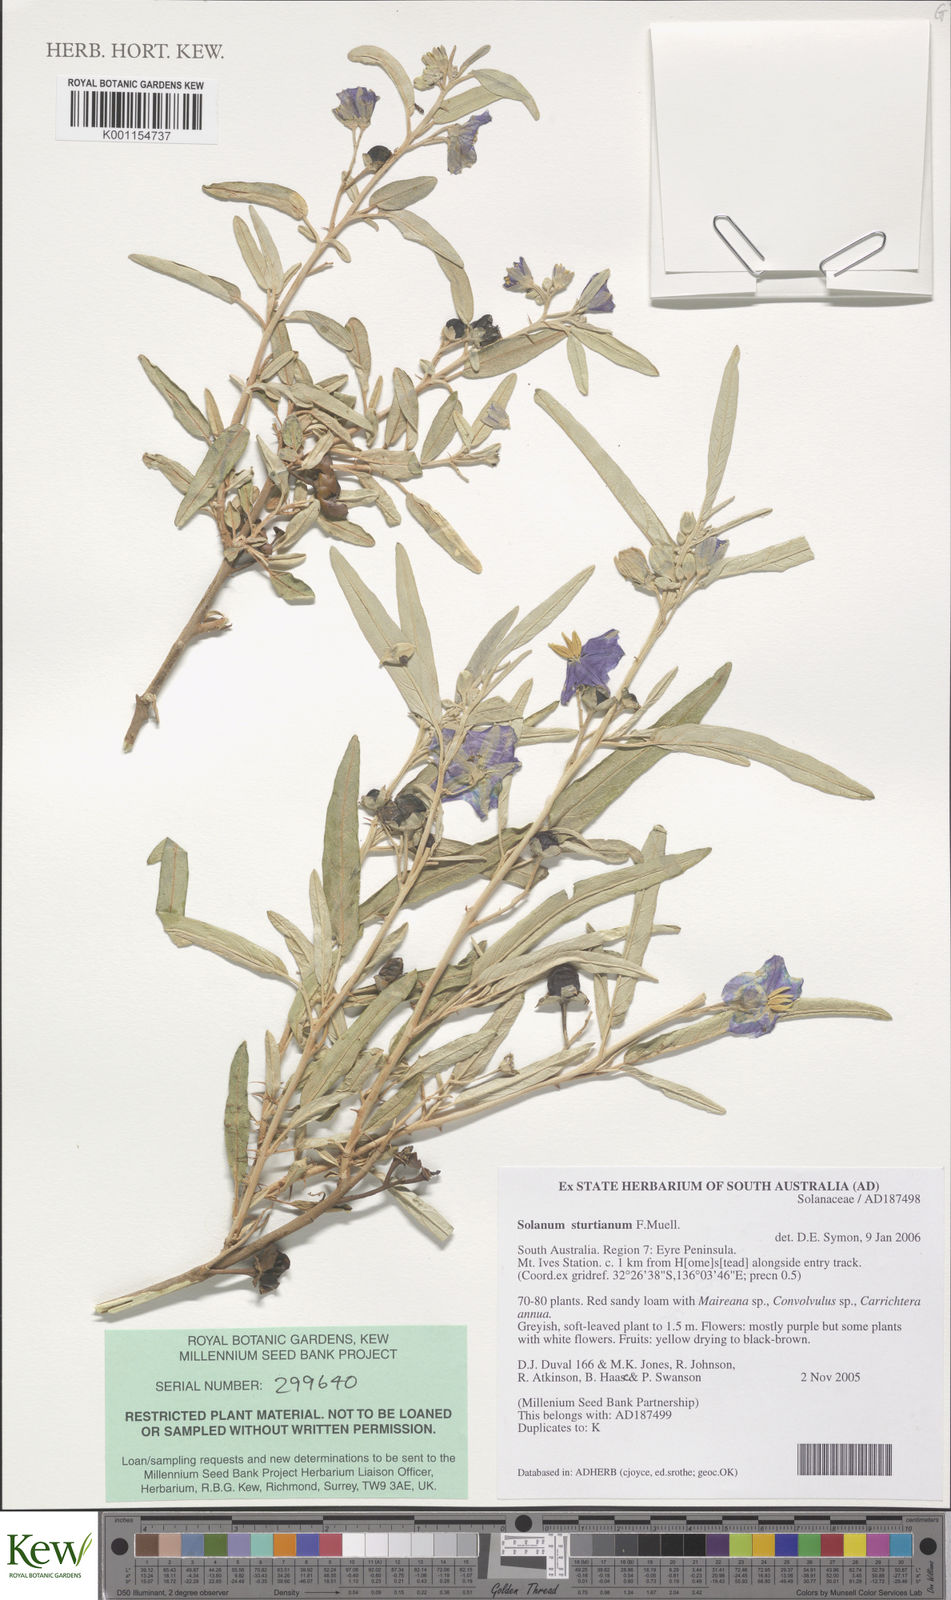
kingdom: Plantae
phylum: Tracheophyta
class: Magnoliopsida
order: Solanales
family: Solanaceae
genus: Solanum
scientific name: Solanum sturtianum
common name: Thargomindah nightshade
